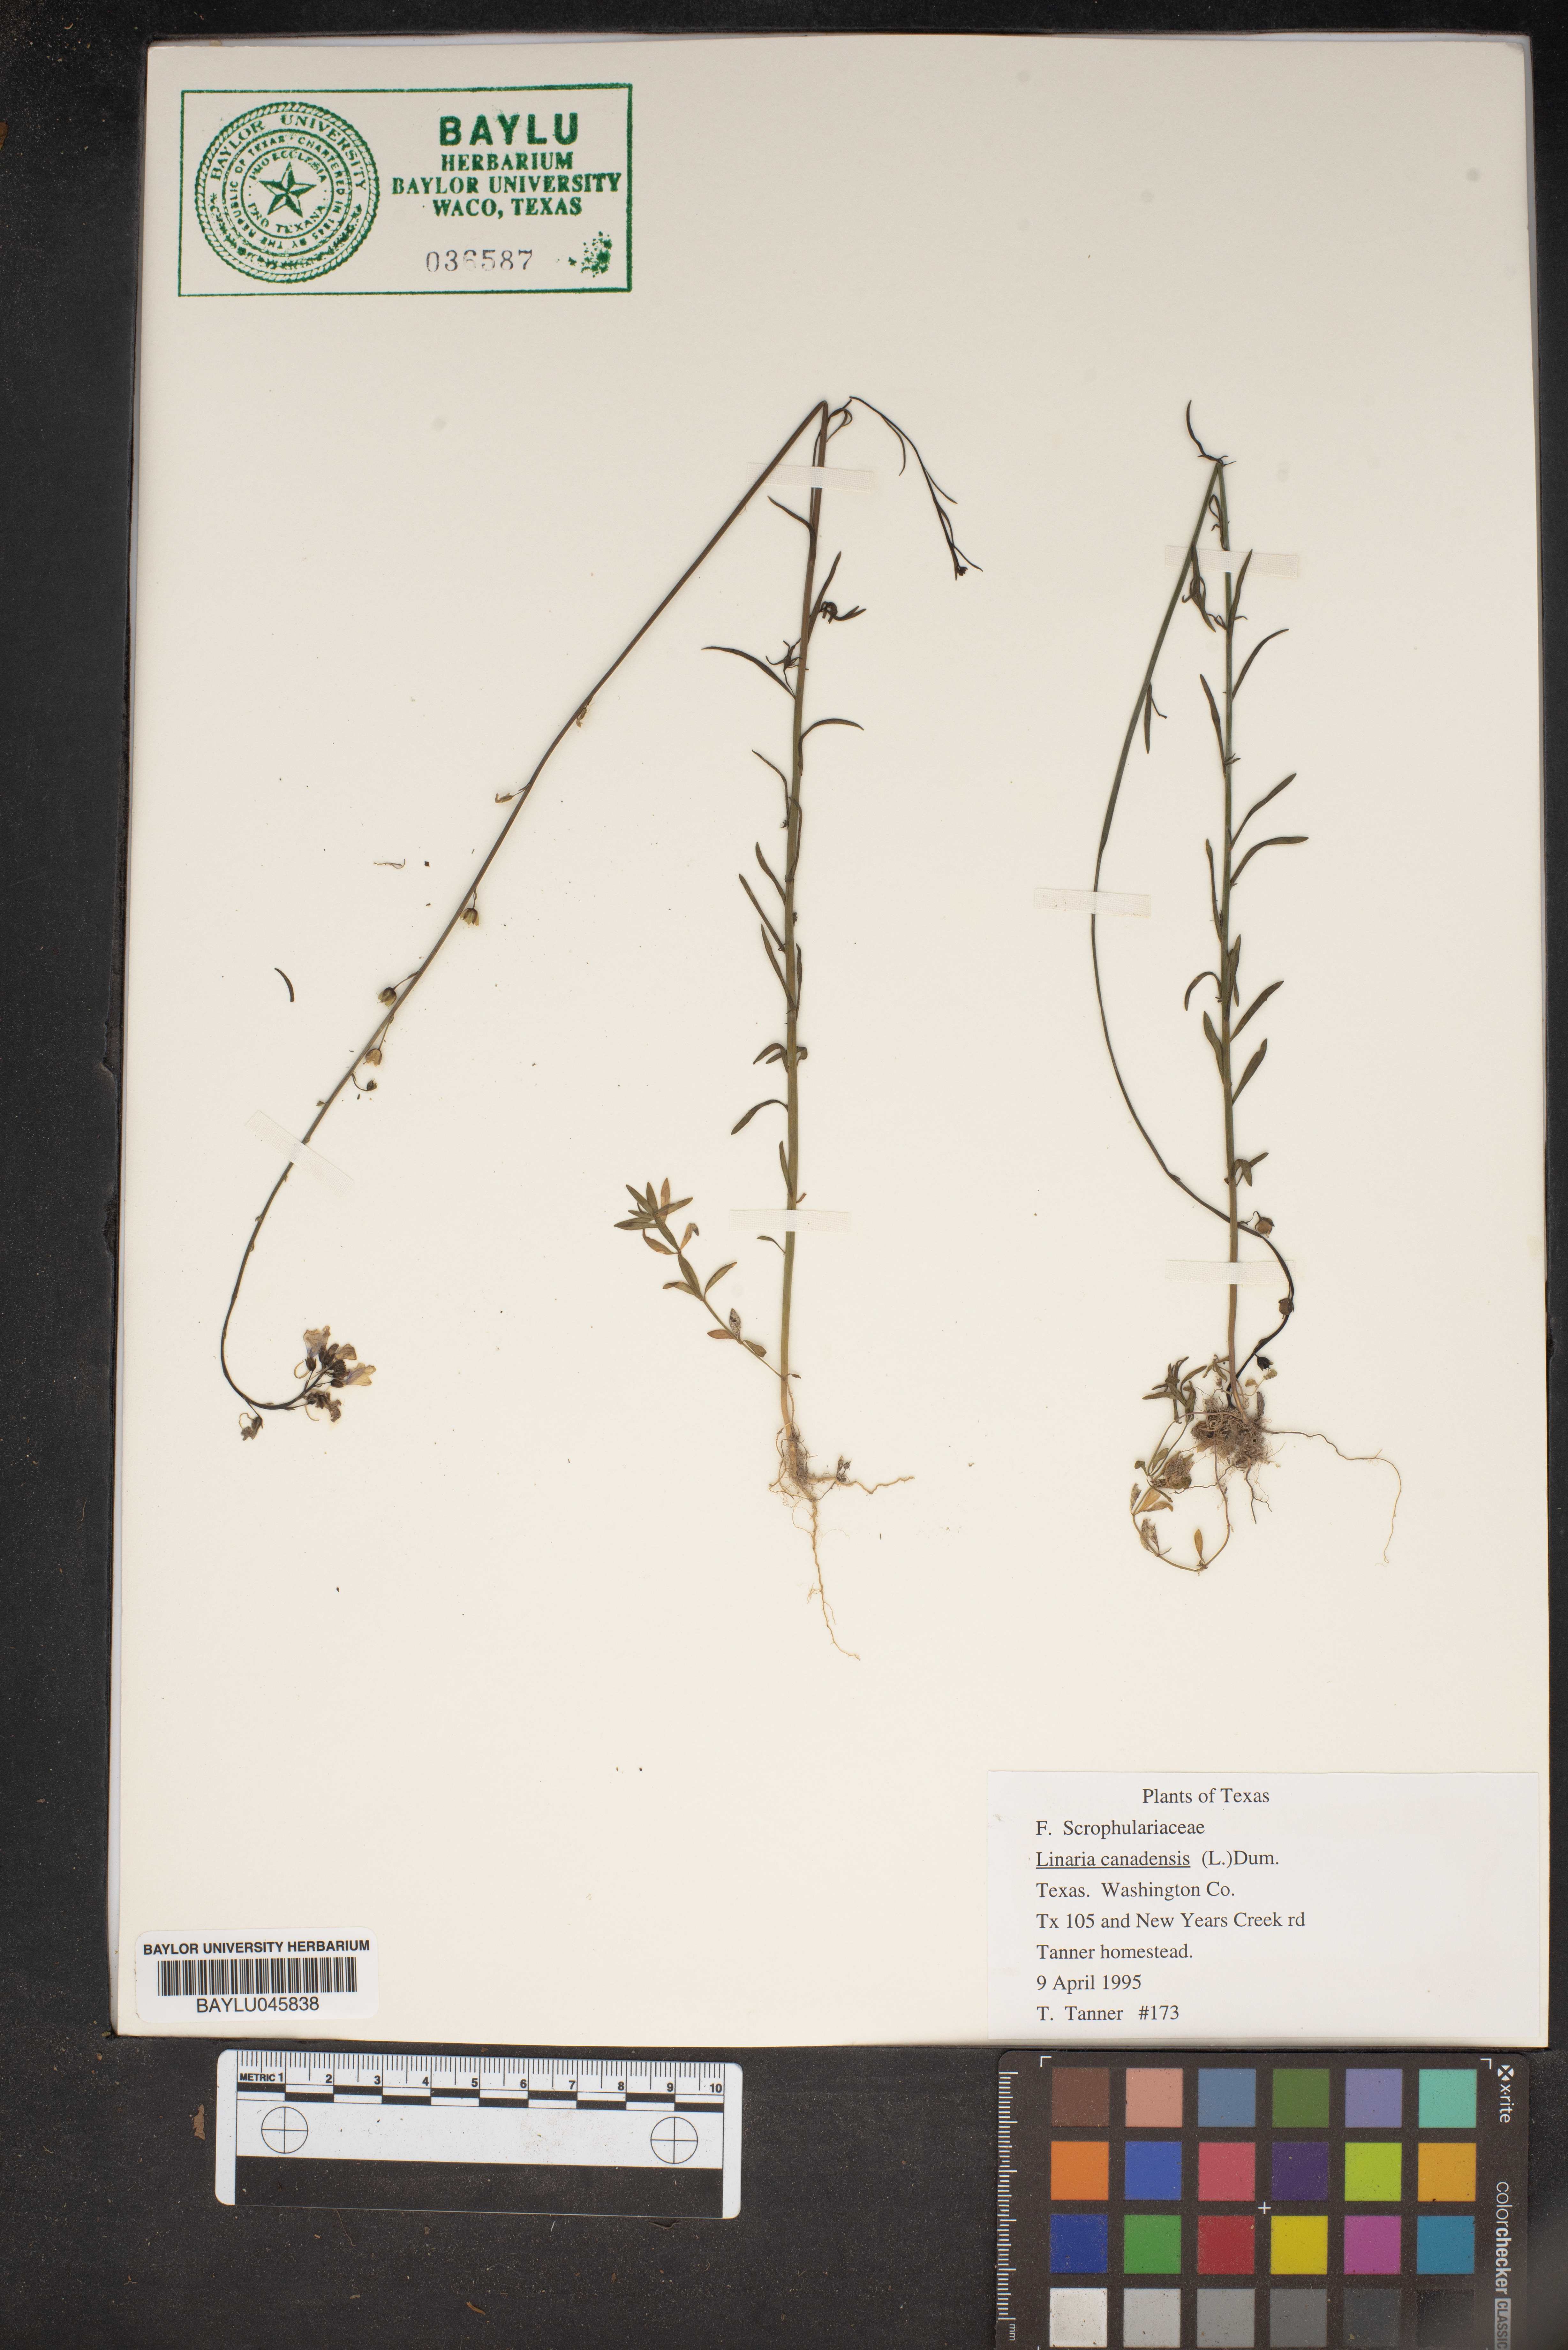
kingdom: Plantae
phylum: Tracheophyta
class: Magnoliopsida
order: Lamiales
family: Plantaginaceae
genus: Nuttallanthus
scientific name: Nuttallanthus canadensis
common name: Blue toadflax
